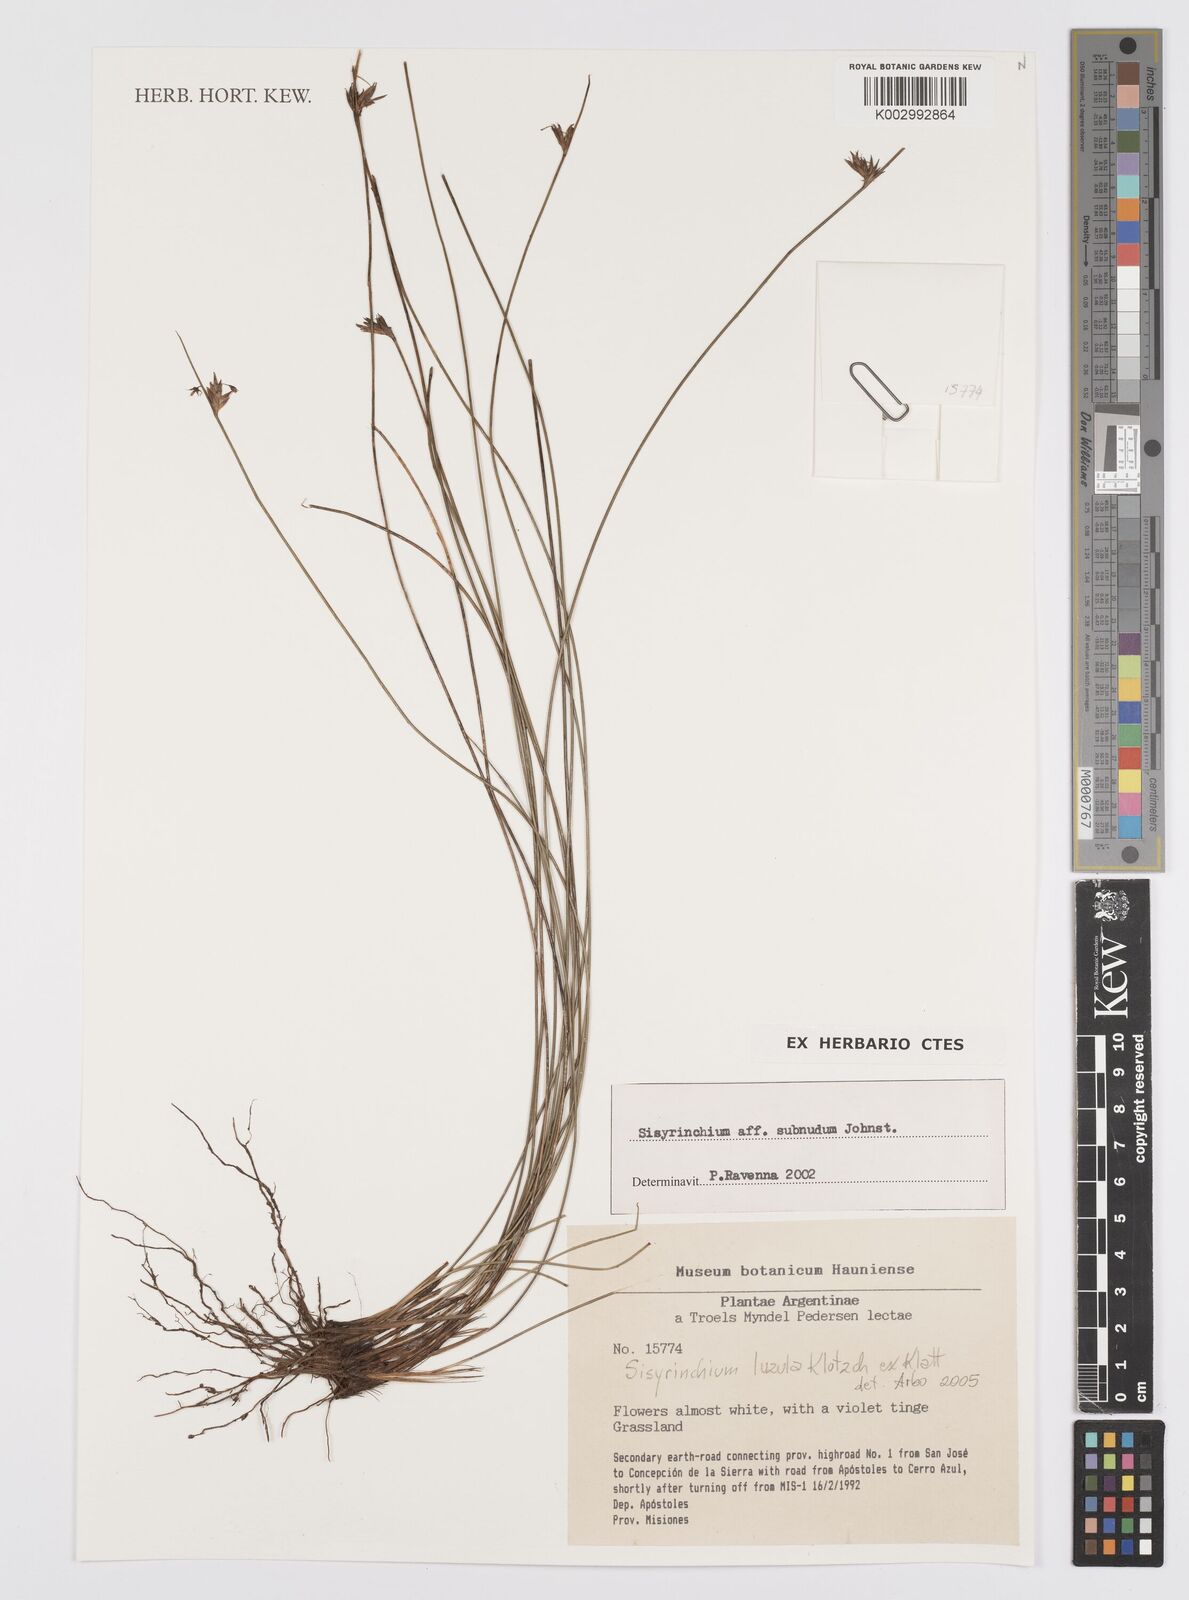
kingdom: Plantae
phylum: Tracheophyta
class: Liliopsida
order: Asparagales
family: Iridaceae
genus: Sisyrinchium
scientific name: Sisyrinchium luzula
